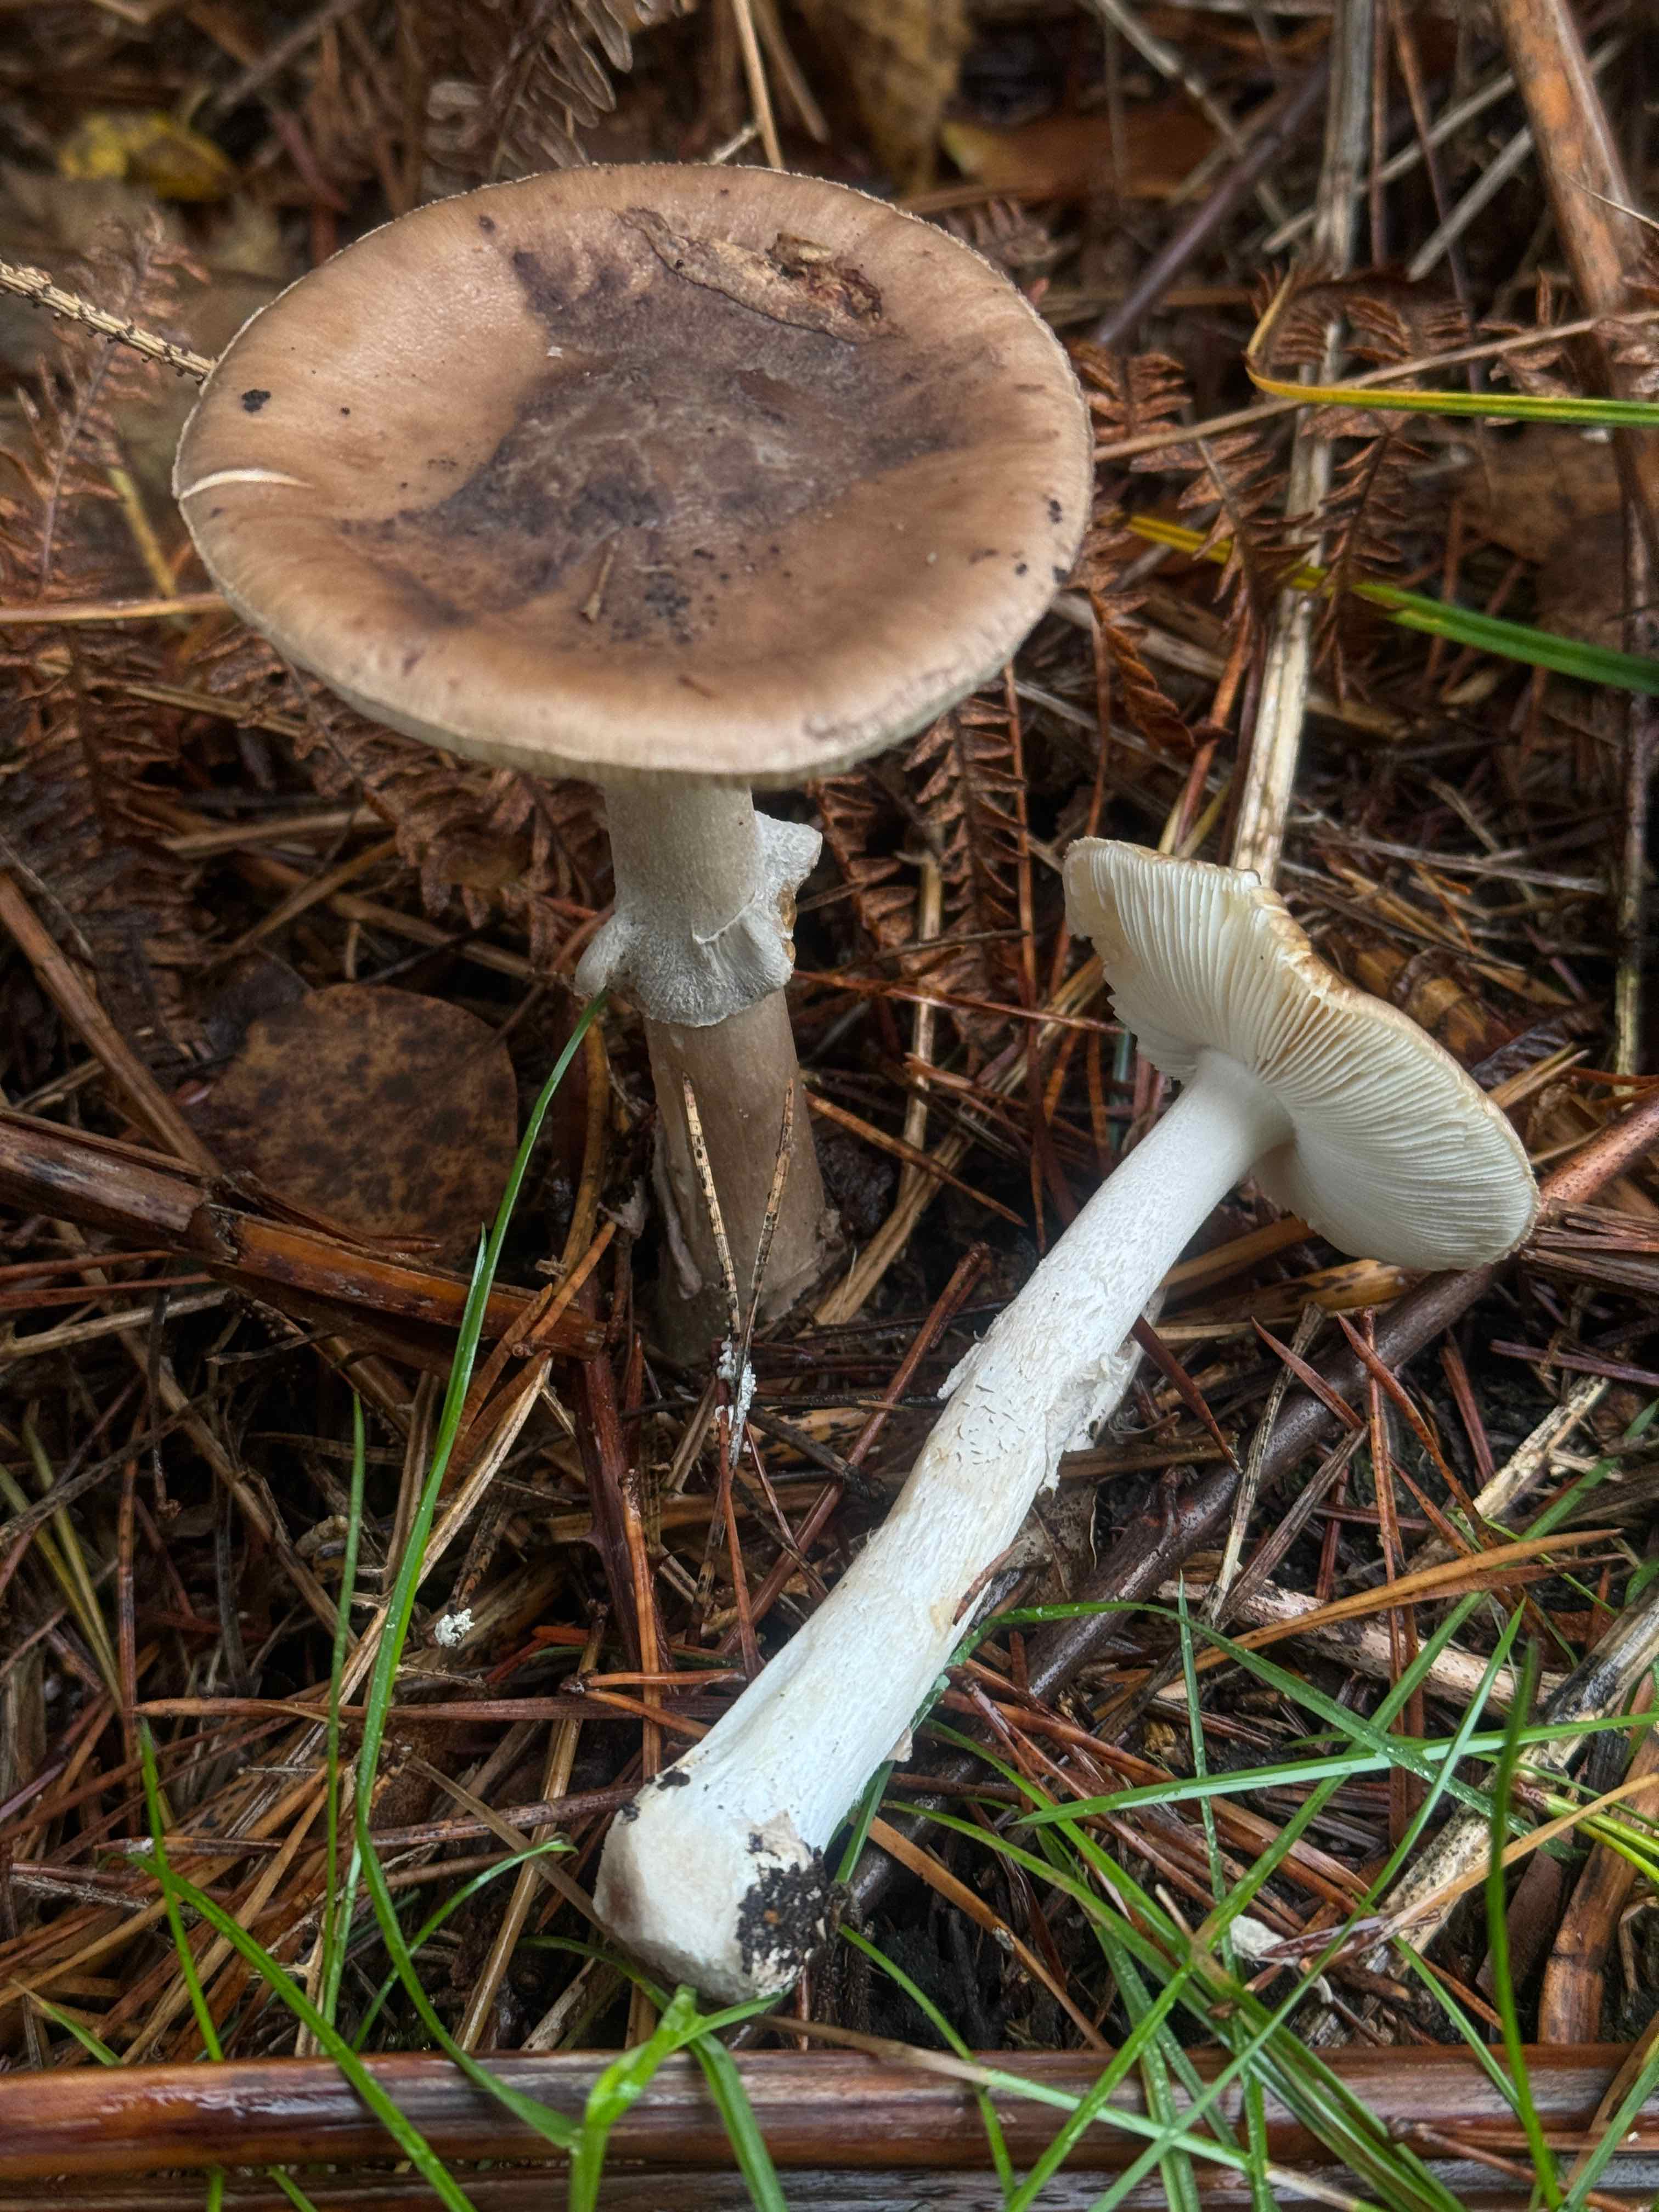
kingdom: Fungi
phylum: Basidiomycota
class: Agaricomycetes
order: Agaricales
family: Amanitaceae
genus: Amanita
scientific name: Amanita porphyria
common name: porfyr-fluesvamp
